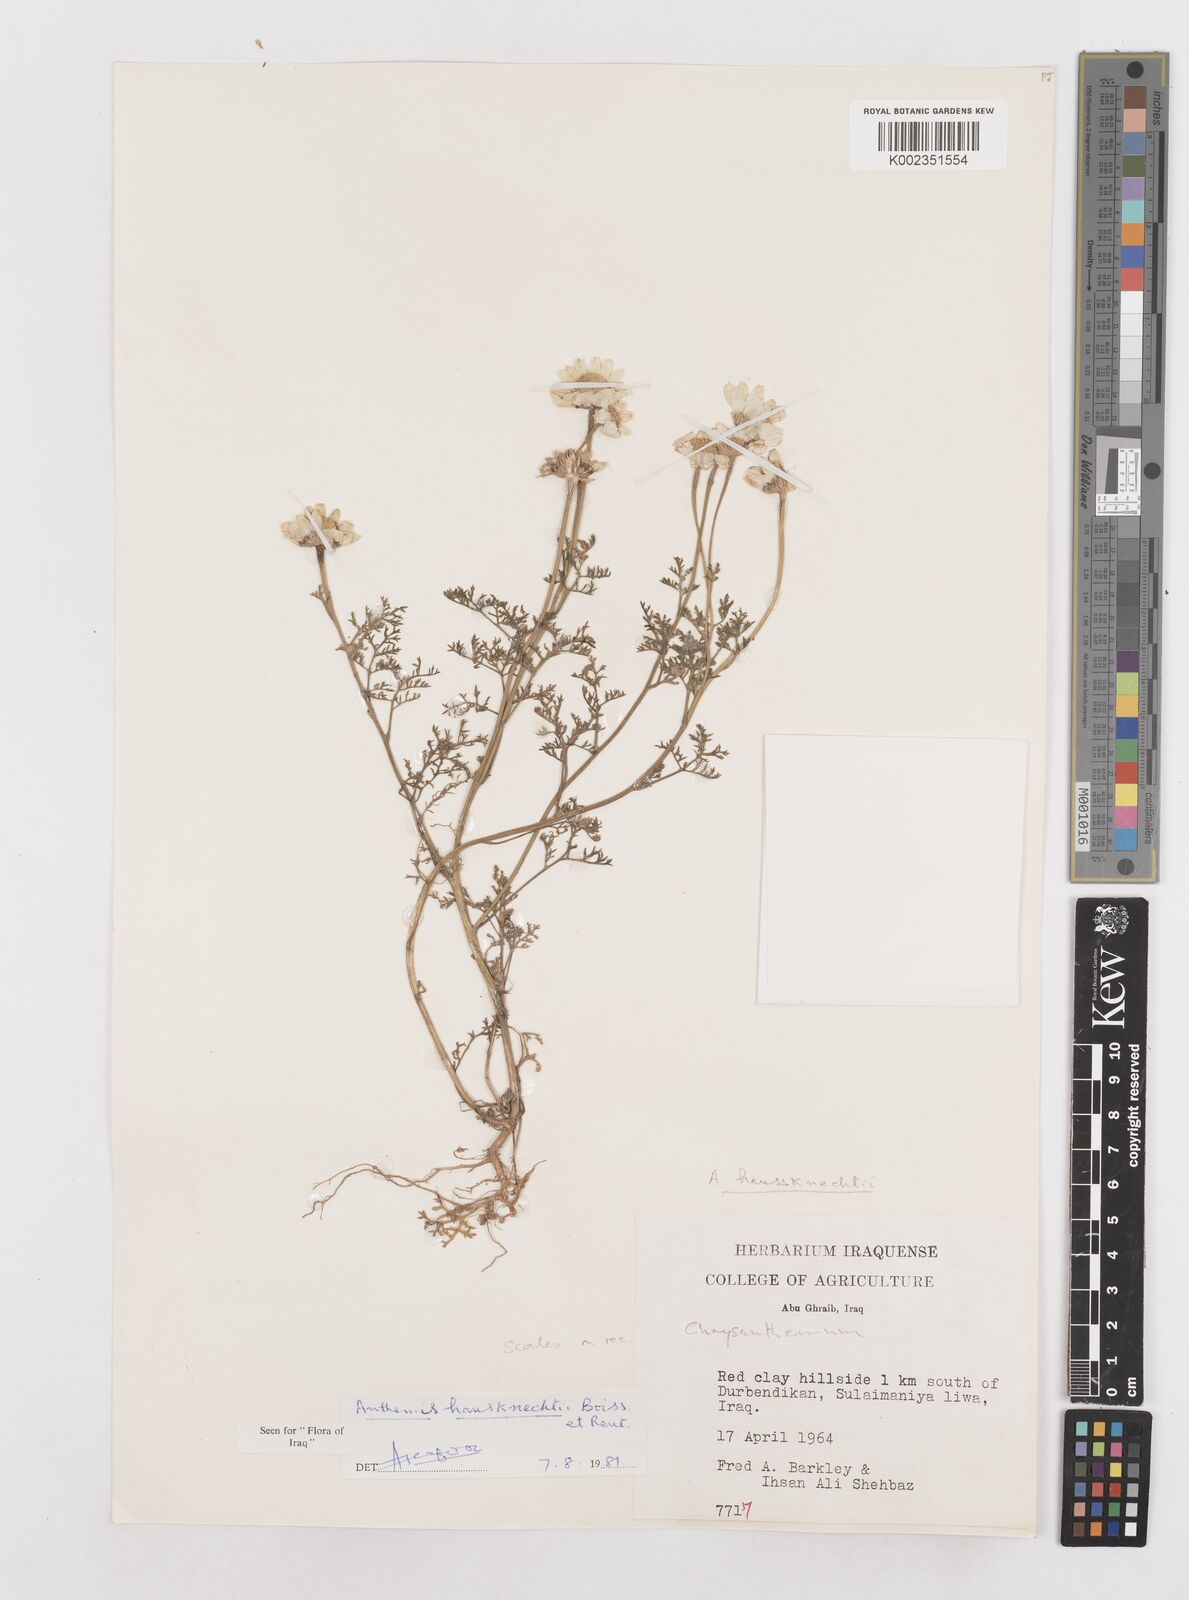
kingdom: Plantae
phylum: Tracheophyta
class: Magnoliopsida
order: Asterales
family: Asteraceae
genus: Anthemis
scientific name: Anthemis haussknechtii
